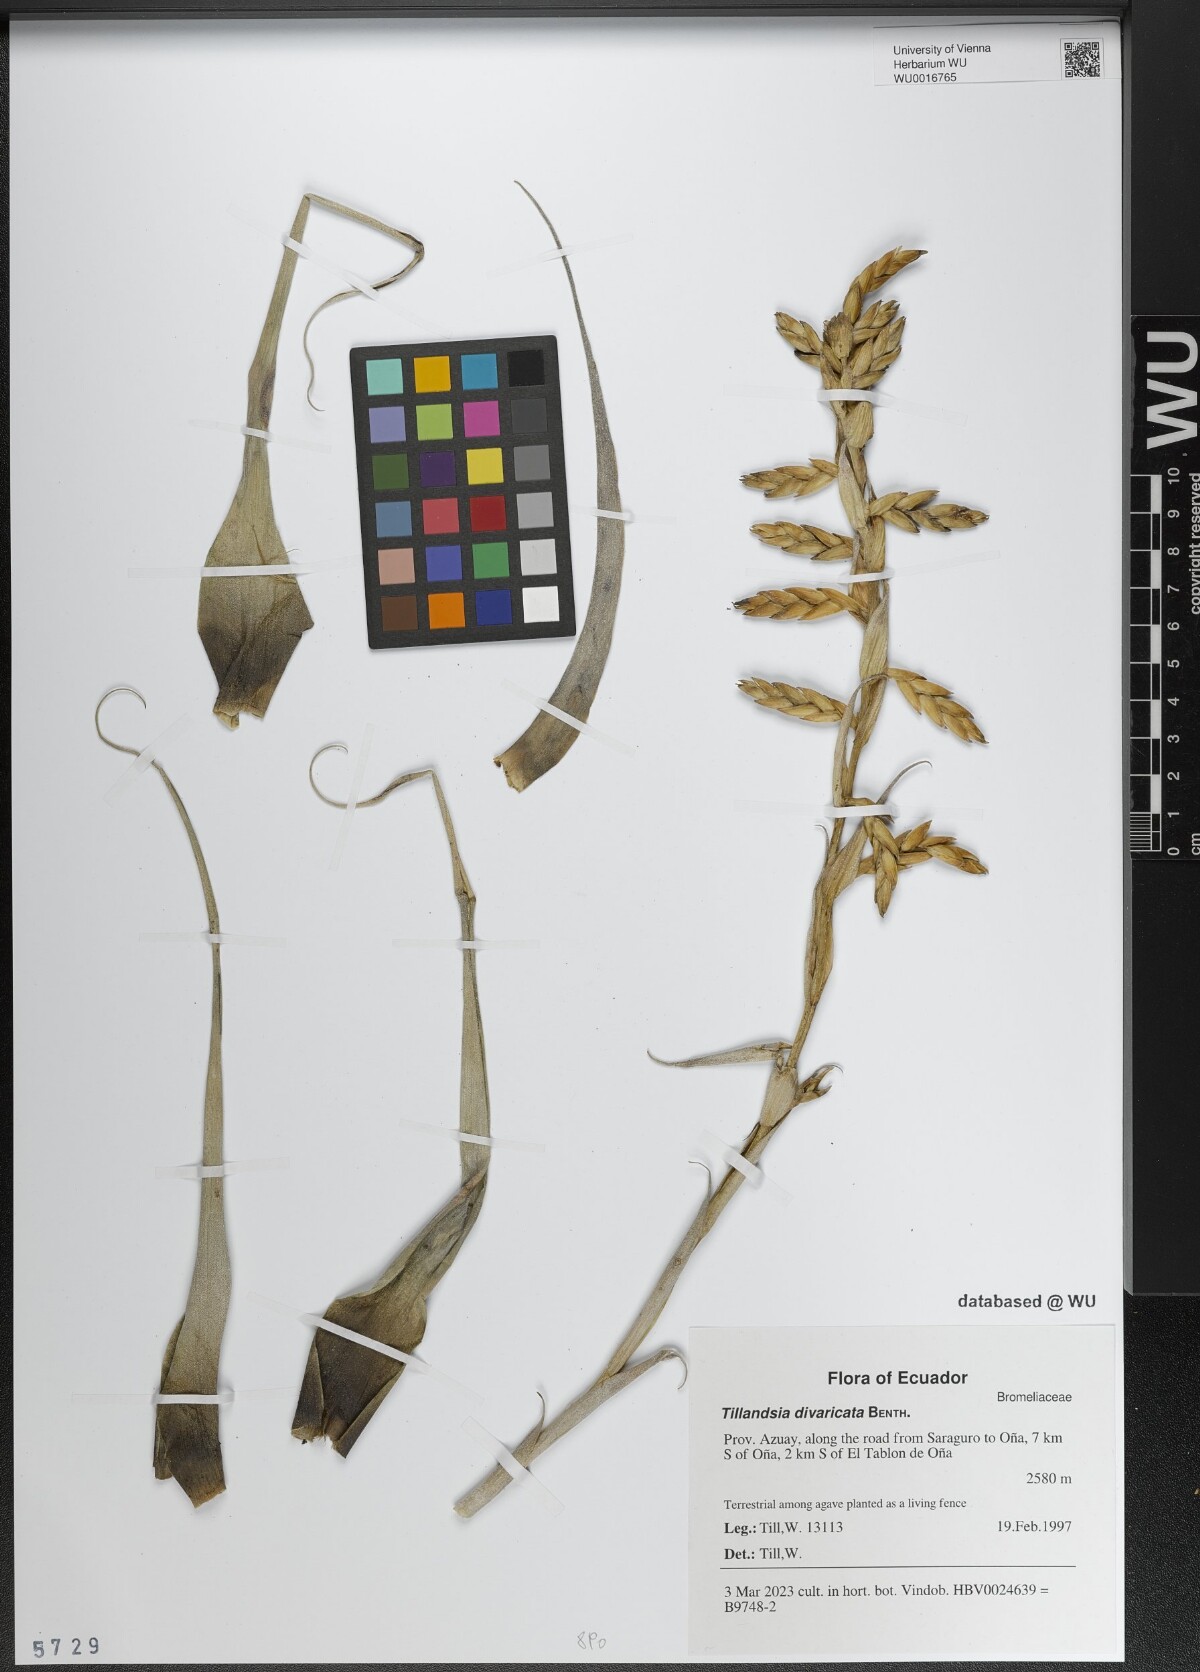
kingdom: Plantae
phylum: Tracheophyta
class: Liliopsida
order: Poales
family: Bromeliaceae
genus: Tillandsia
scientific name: Tillandsia latifolia
